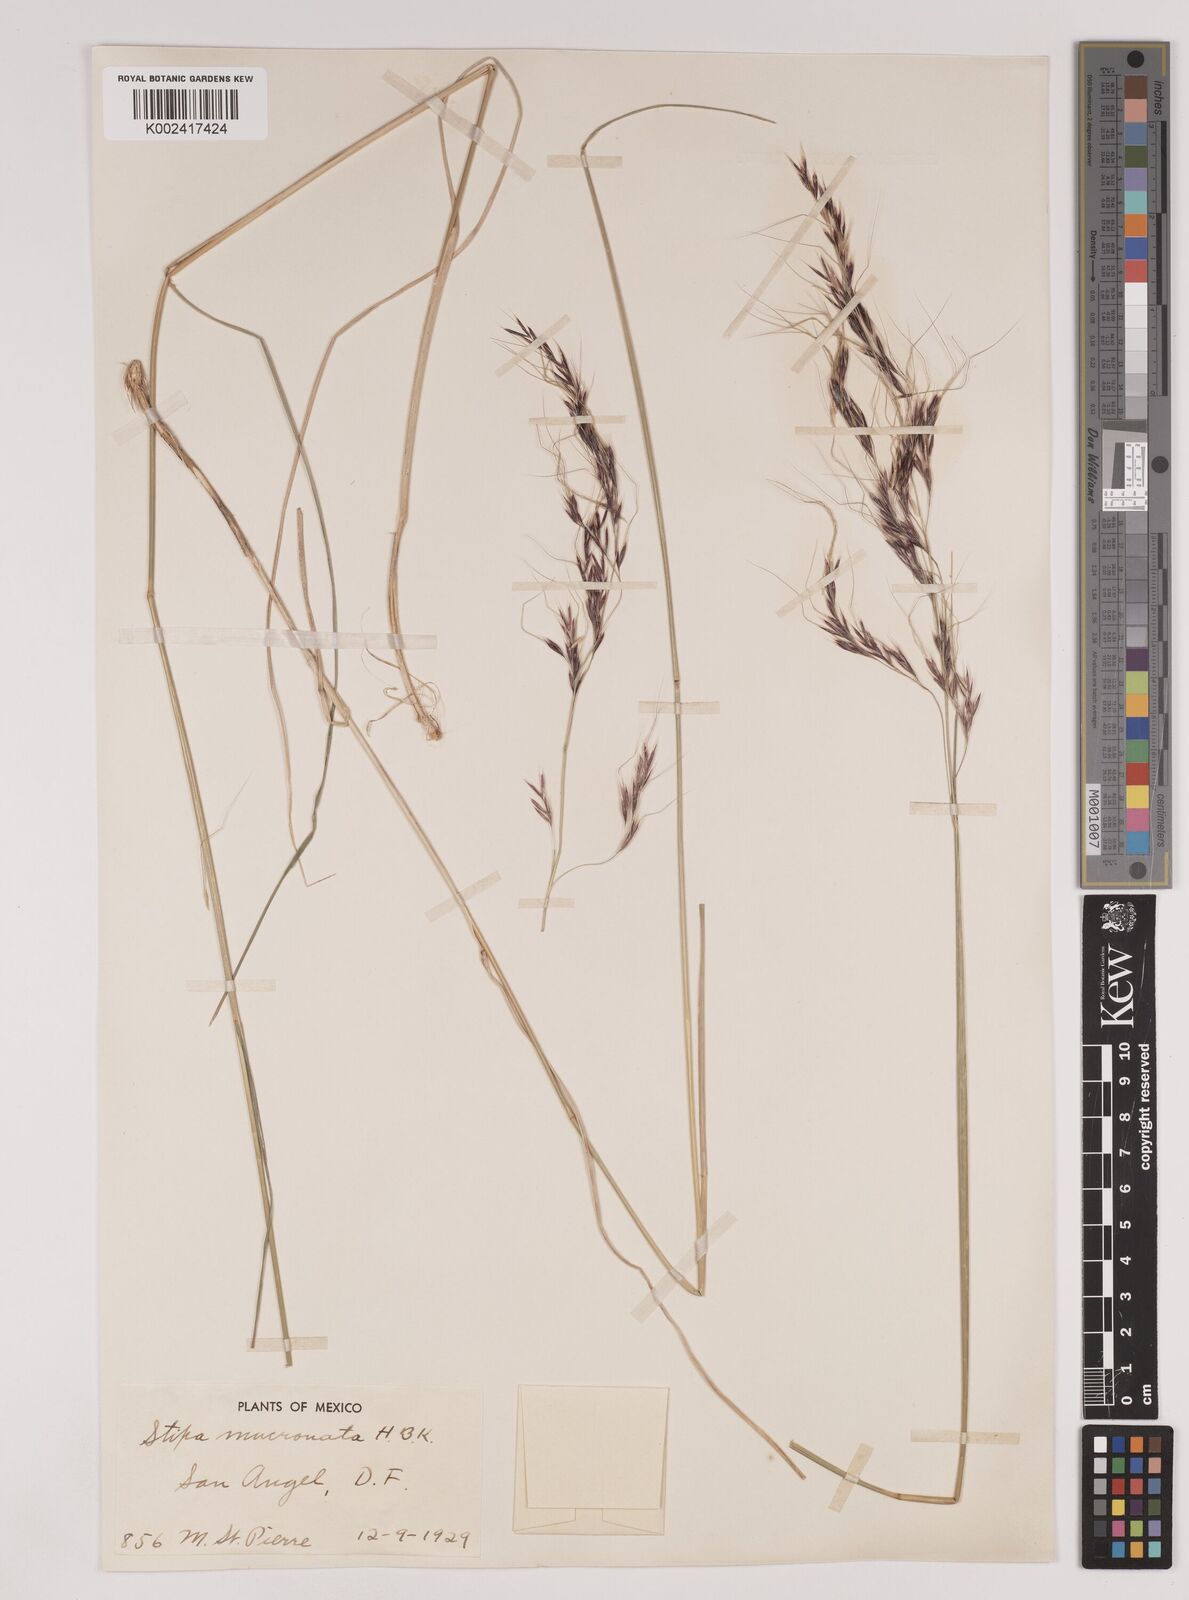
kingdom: Plantae
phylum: Tracheophyta
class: Liliopsida
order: Poales
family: Poaceae
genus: Nassella
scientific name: Nassella mucronata
